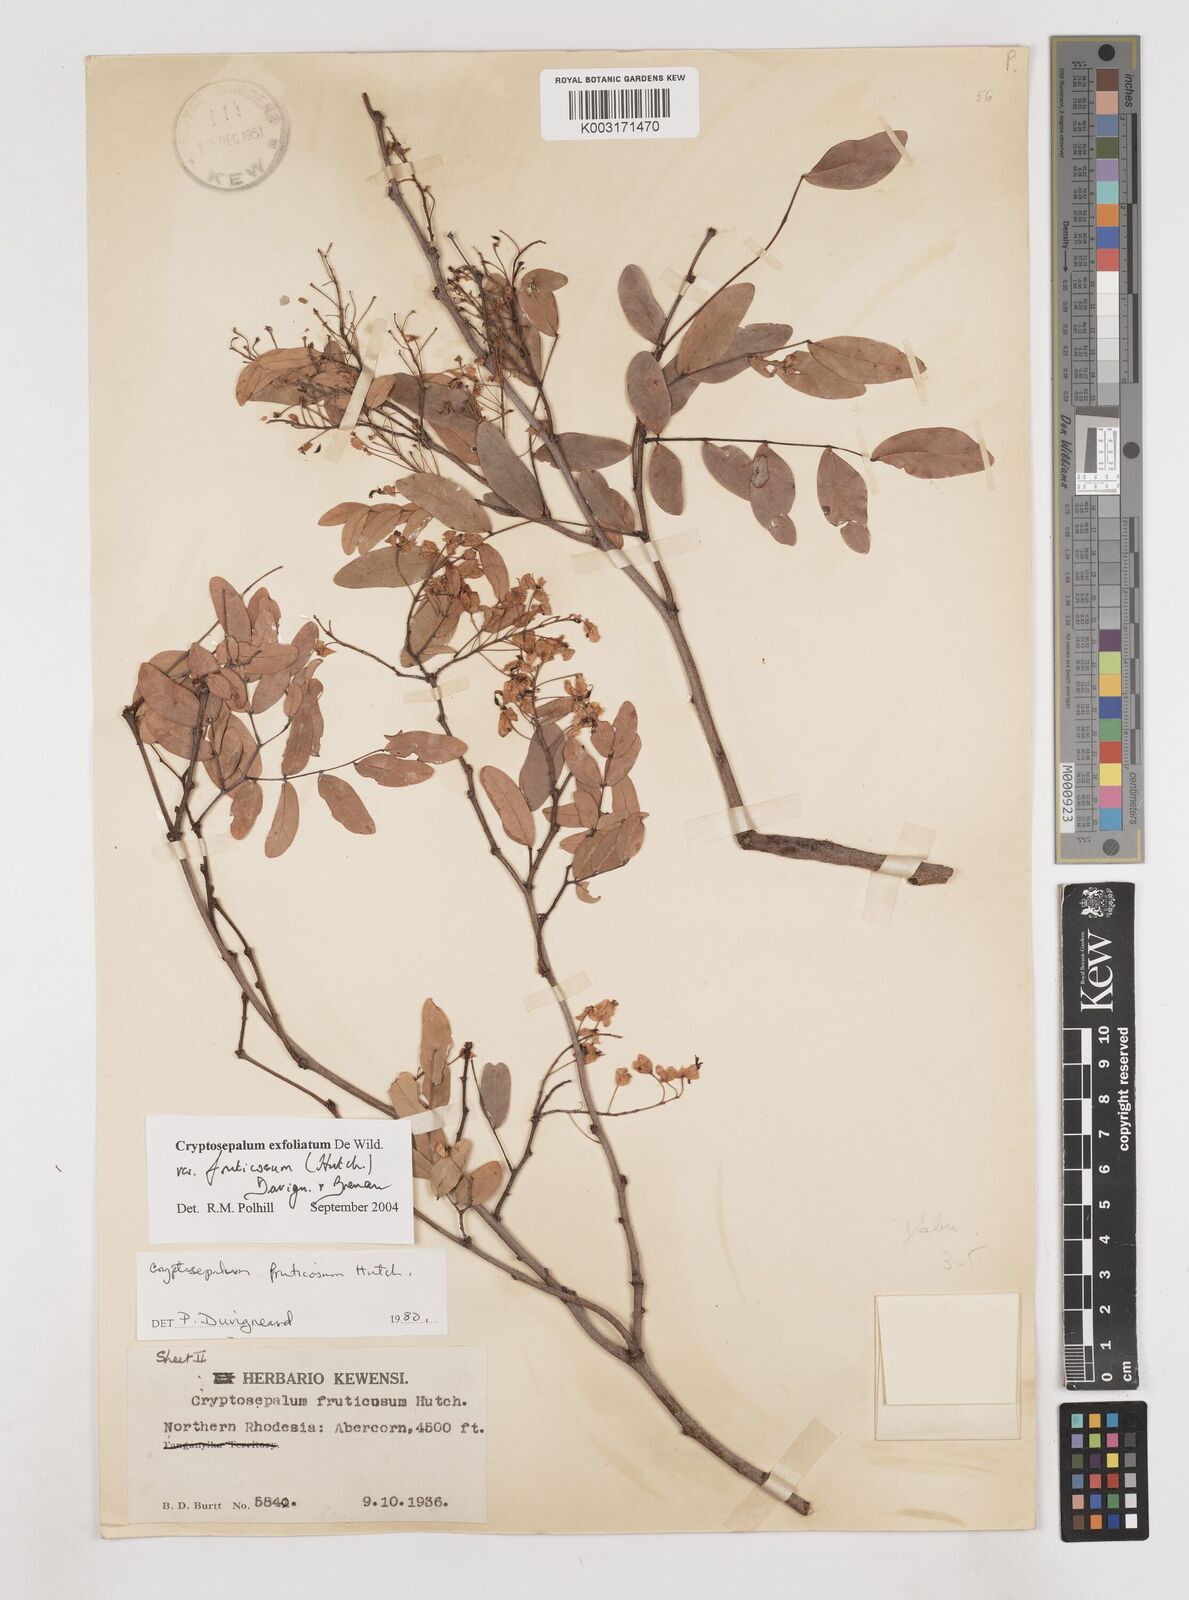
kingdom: Plantae
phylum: Tracheophyta
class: Magnoliopsida
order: Fabales
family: Fabaceae
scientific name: Fabaceae
